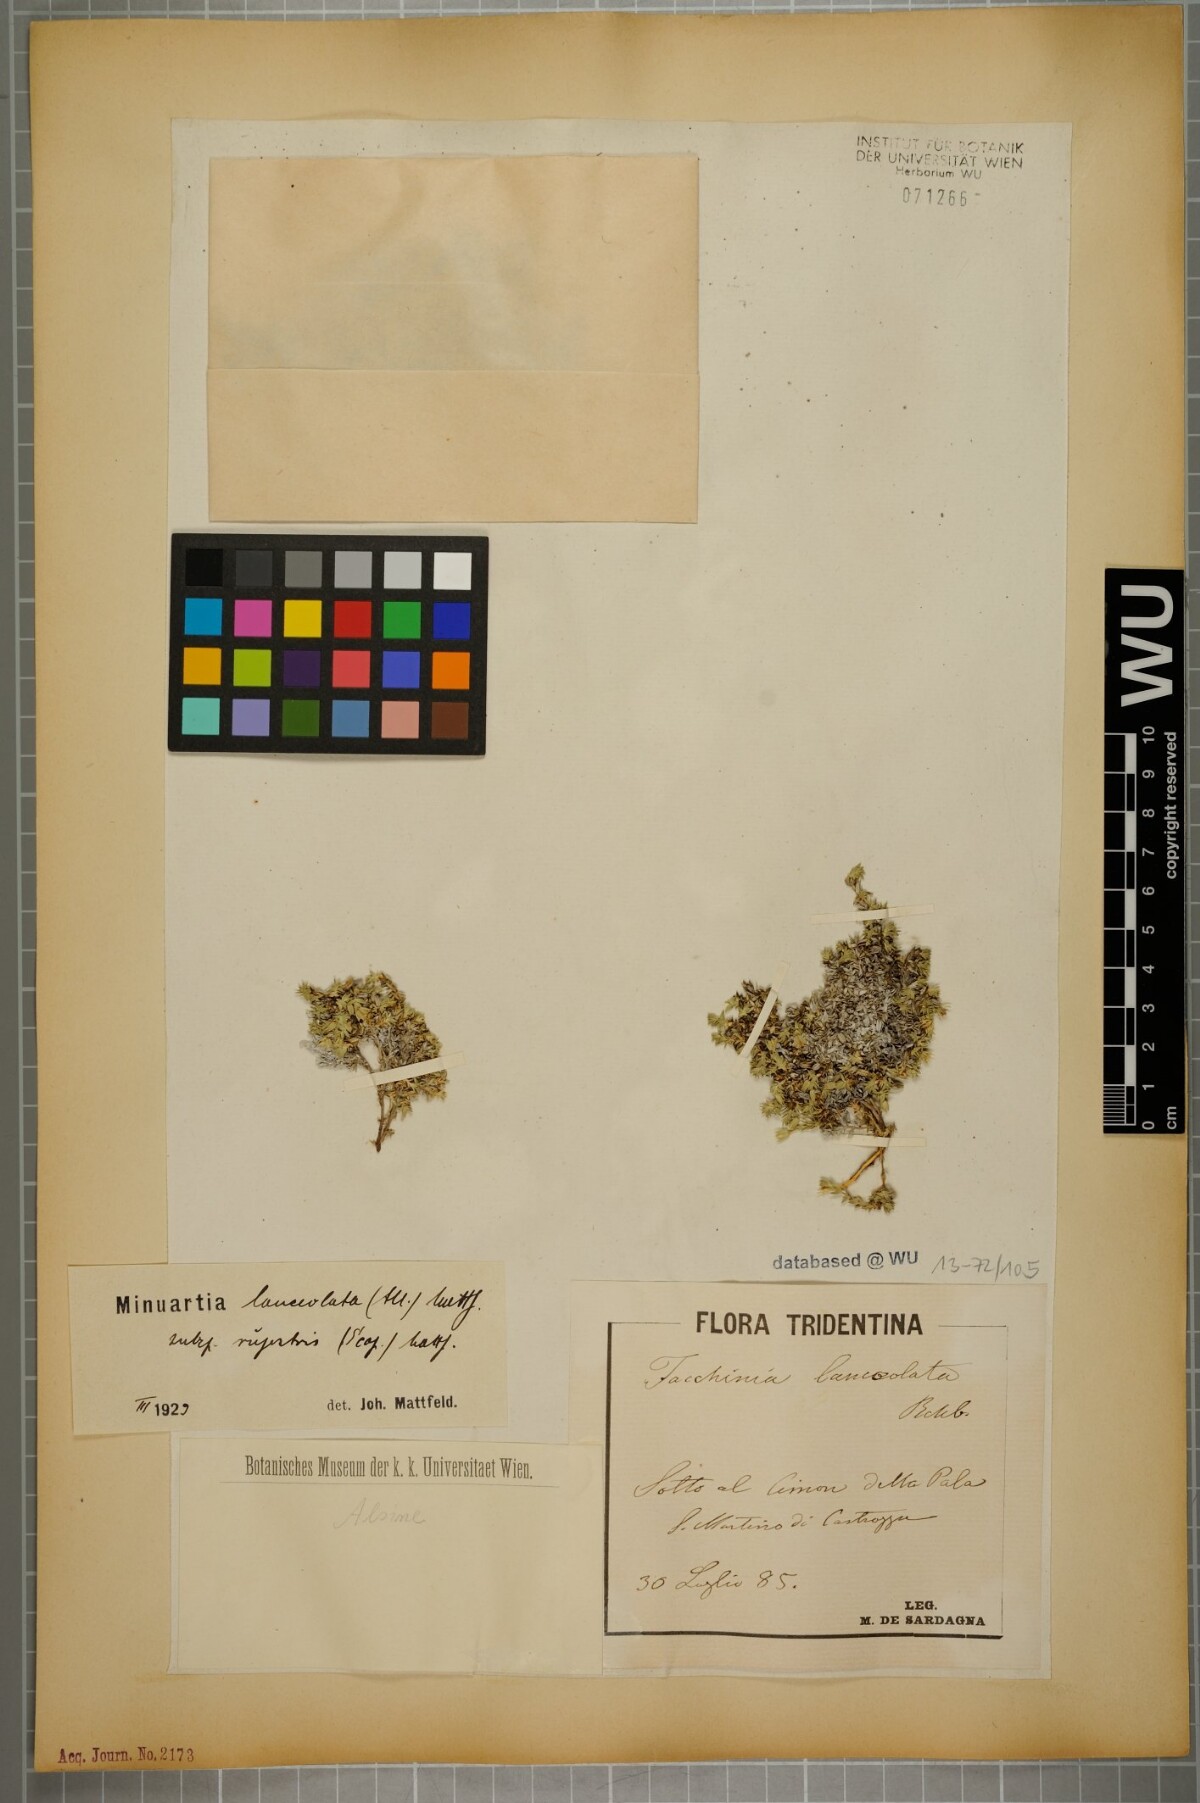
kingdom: Plantae
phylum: Tracheophyta
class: Magnoliopsida
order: Caryophyllales
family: Caryophyllaceae
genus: Facchinia
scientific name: Facchinia rupestris
